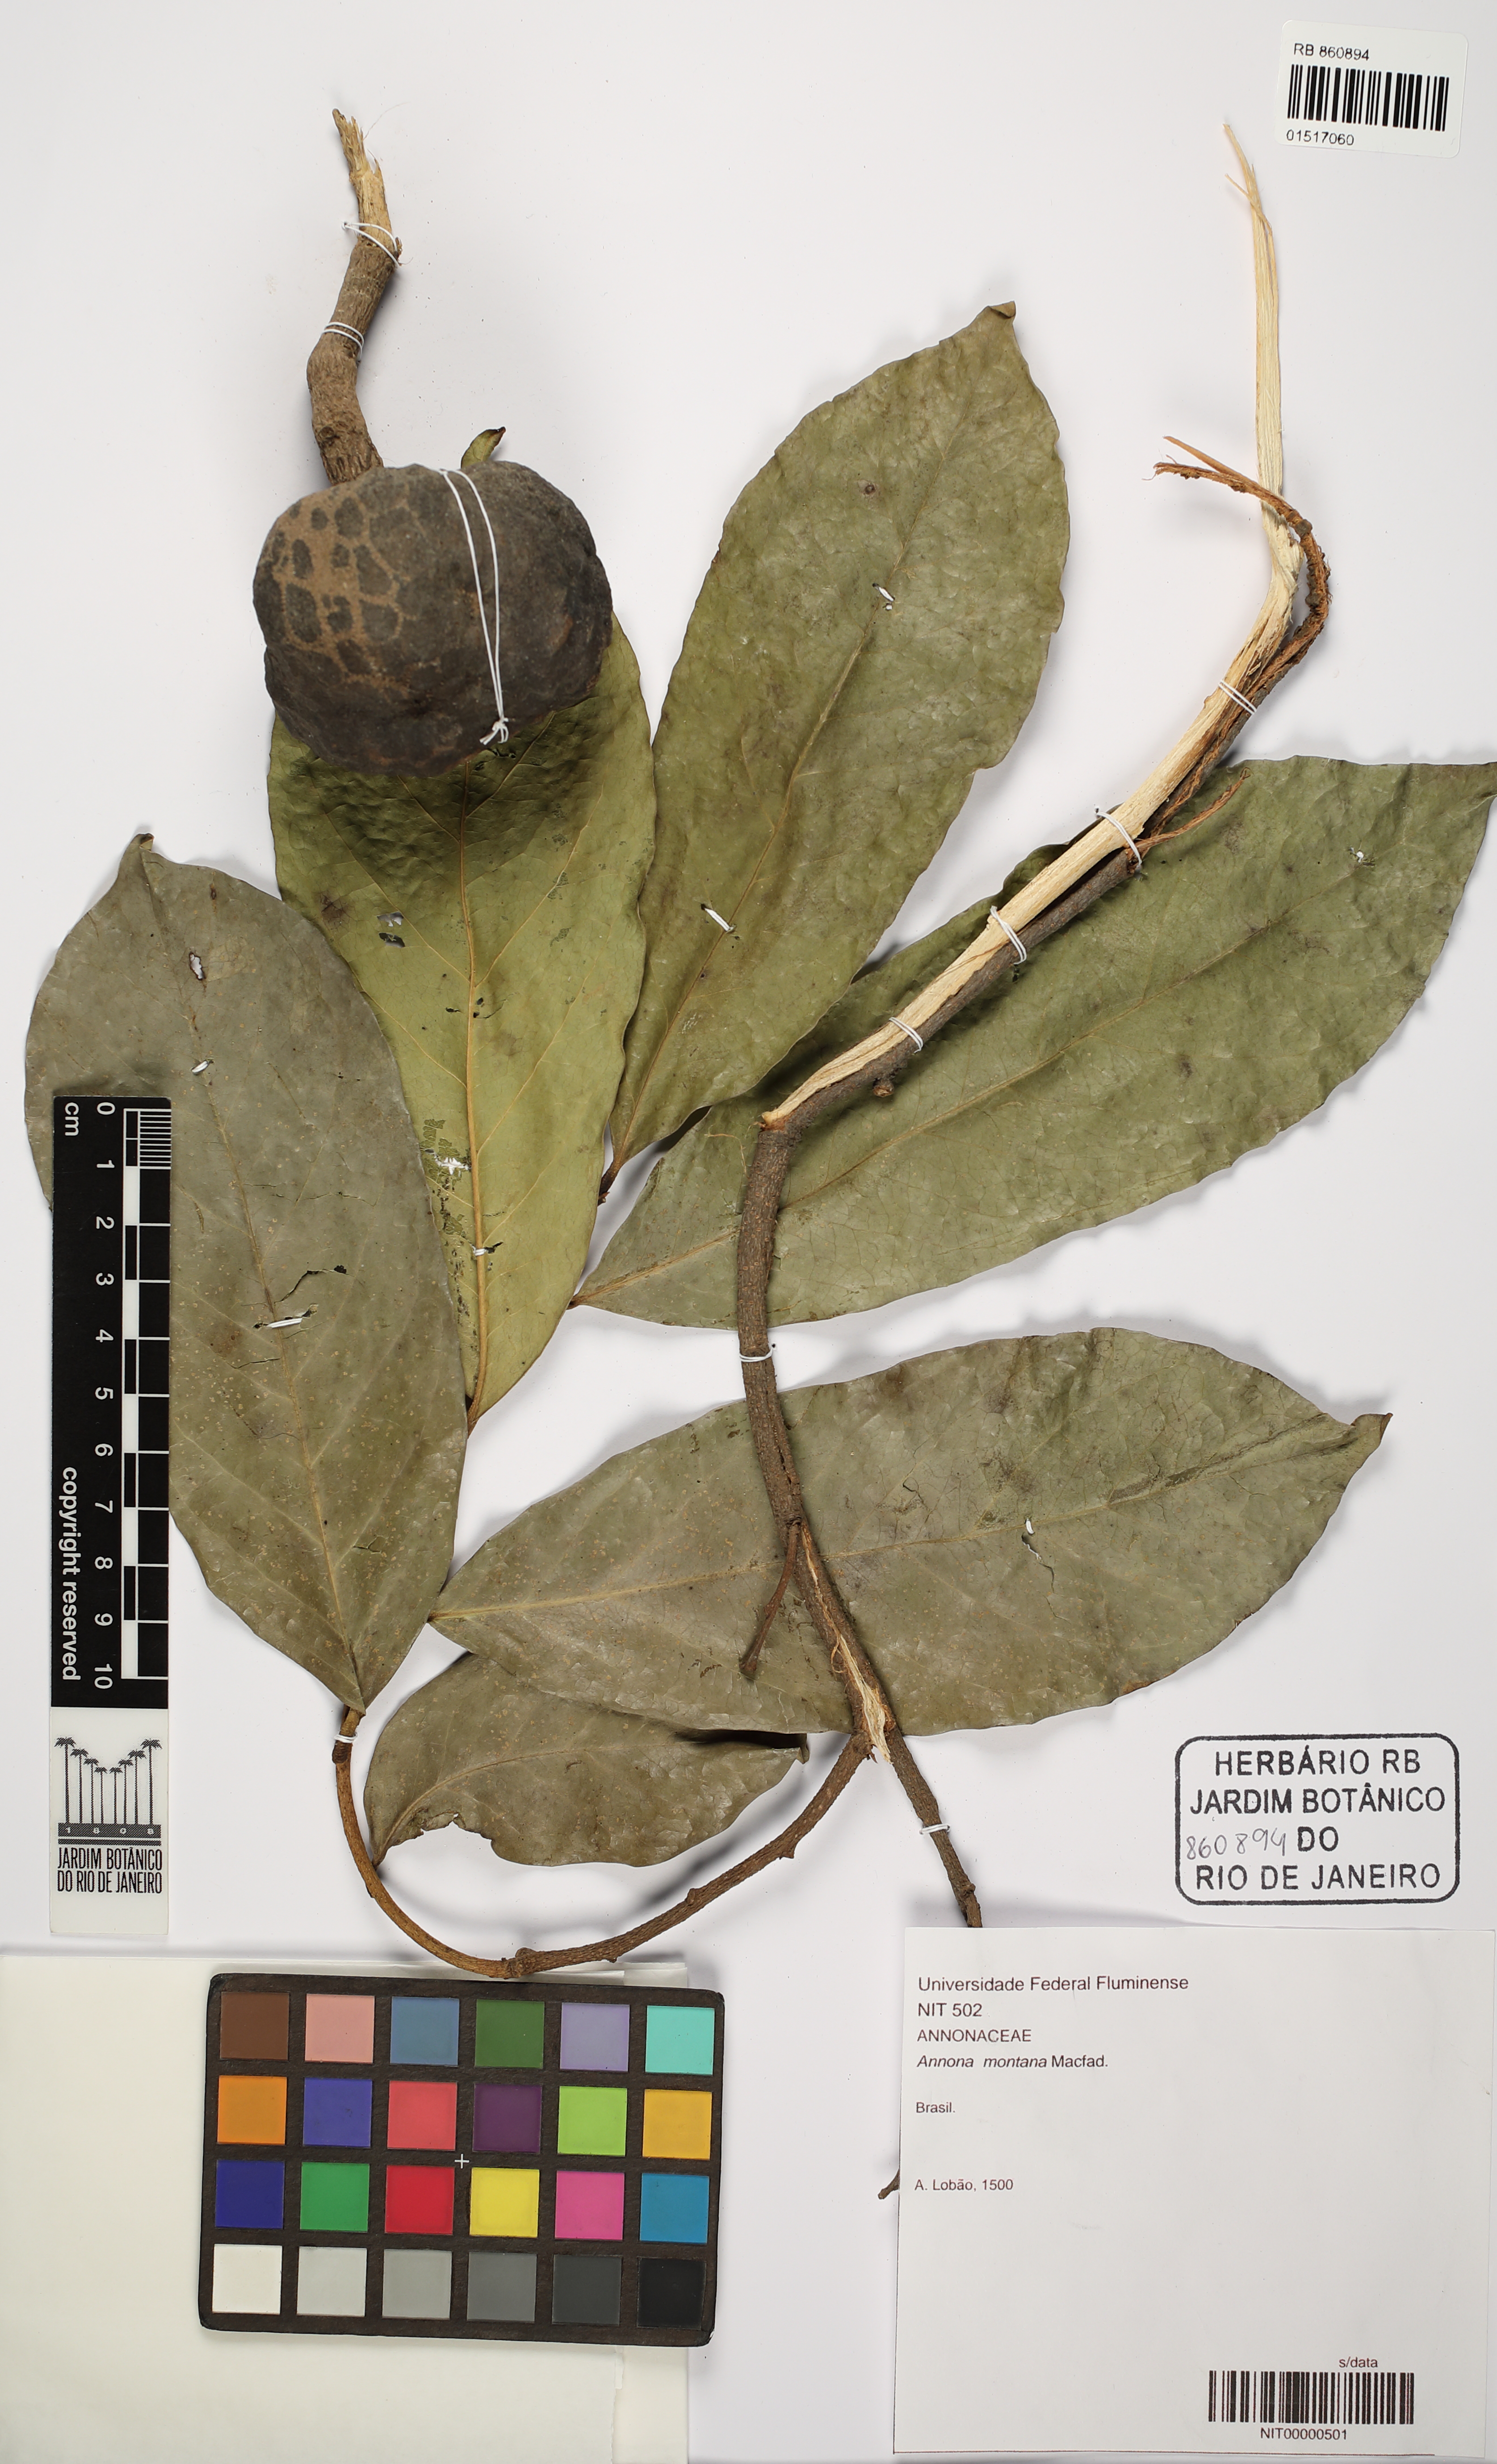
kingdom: Plantae
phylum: Tracheophyta
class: Magnoliopsida
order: Magnoliales
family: Annonaceae
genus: Annona
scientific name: Annona montana
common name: Mountain soursop
